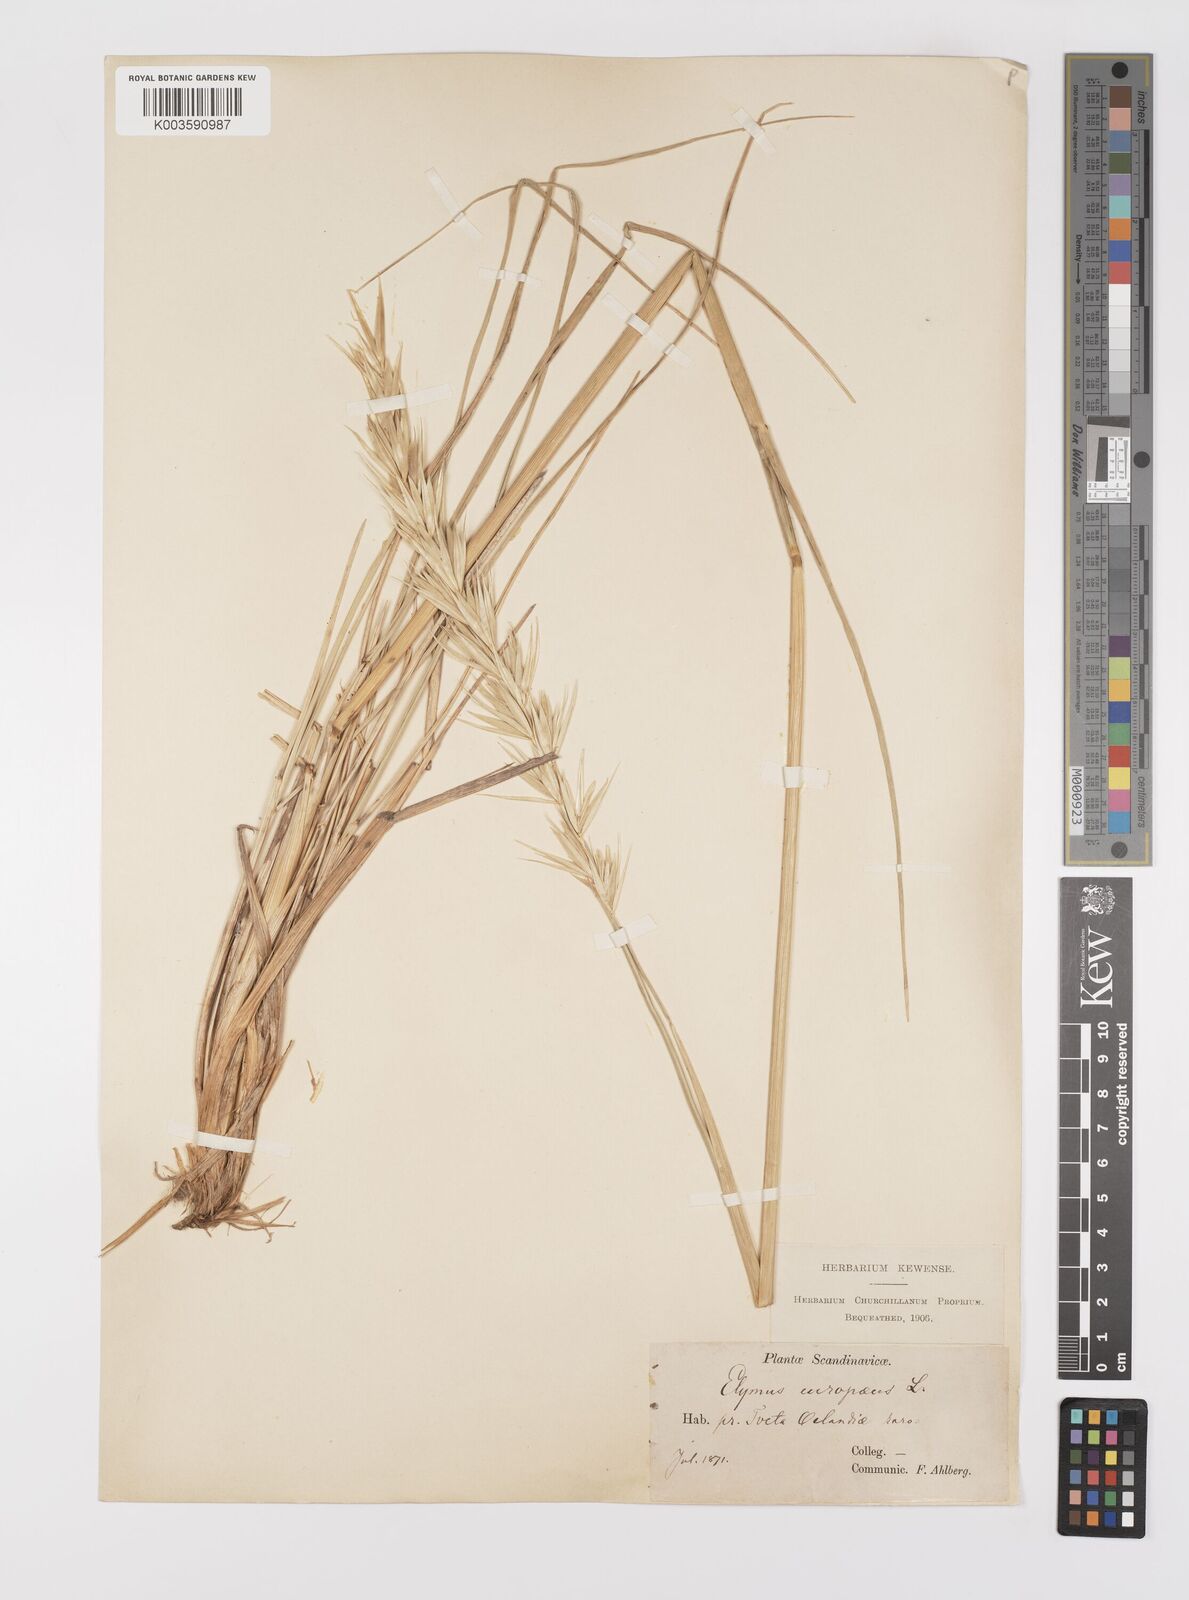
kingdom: Plantae
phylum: Tracheophyta
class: Liliopsida
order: Poales
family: Poaceae
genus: Leymus
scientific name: Leymus arenarius
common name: Lyme-grass
